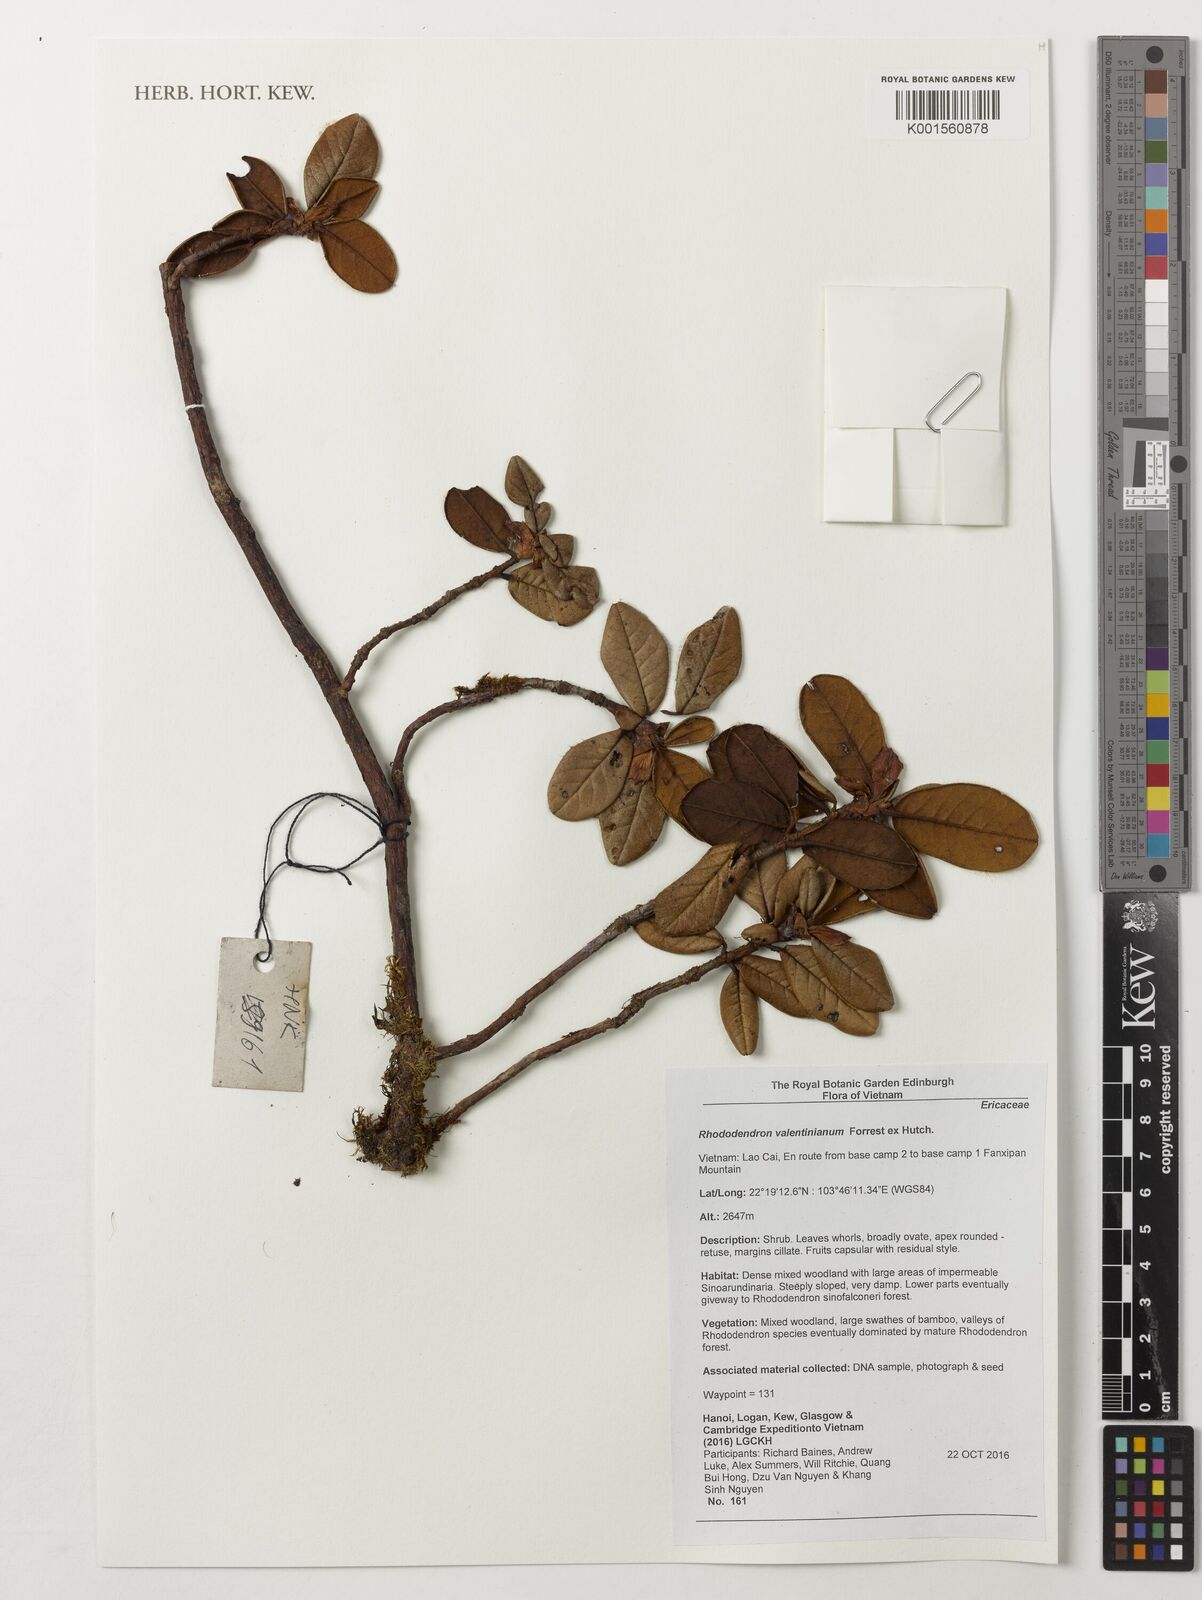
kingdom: Plantae
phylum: Tracheophyta
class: Magnoliopsida
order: Ericales
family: Ericaceae
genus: Rhododendron
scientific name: Rhododendron valentinianum
